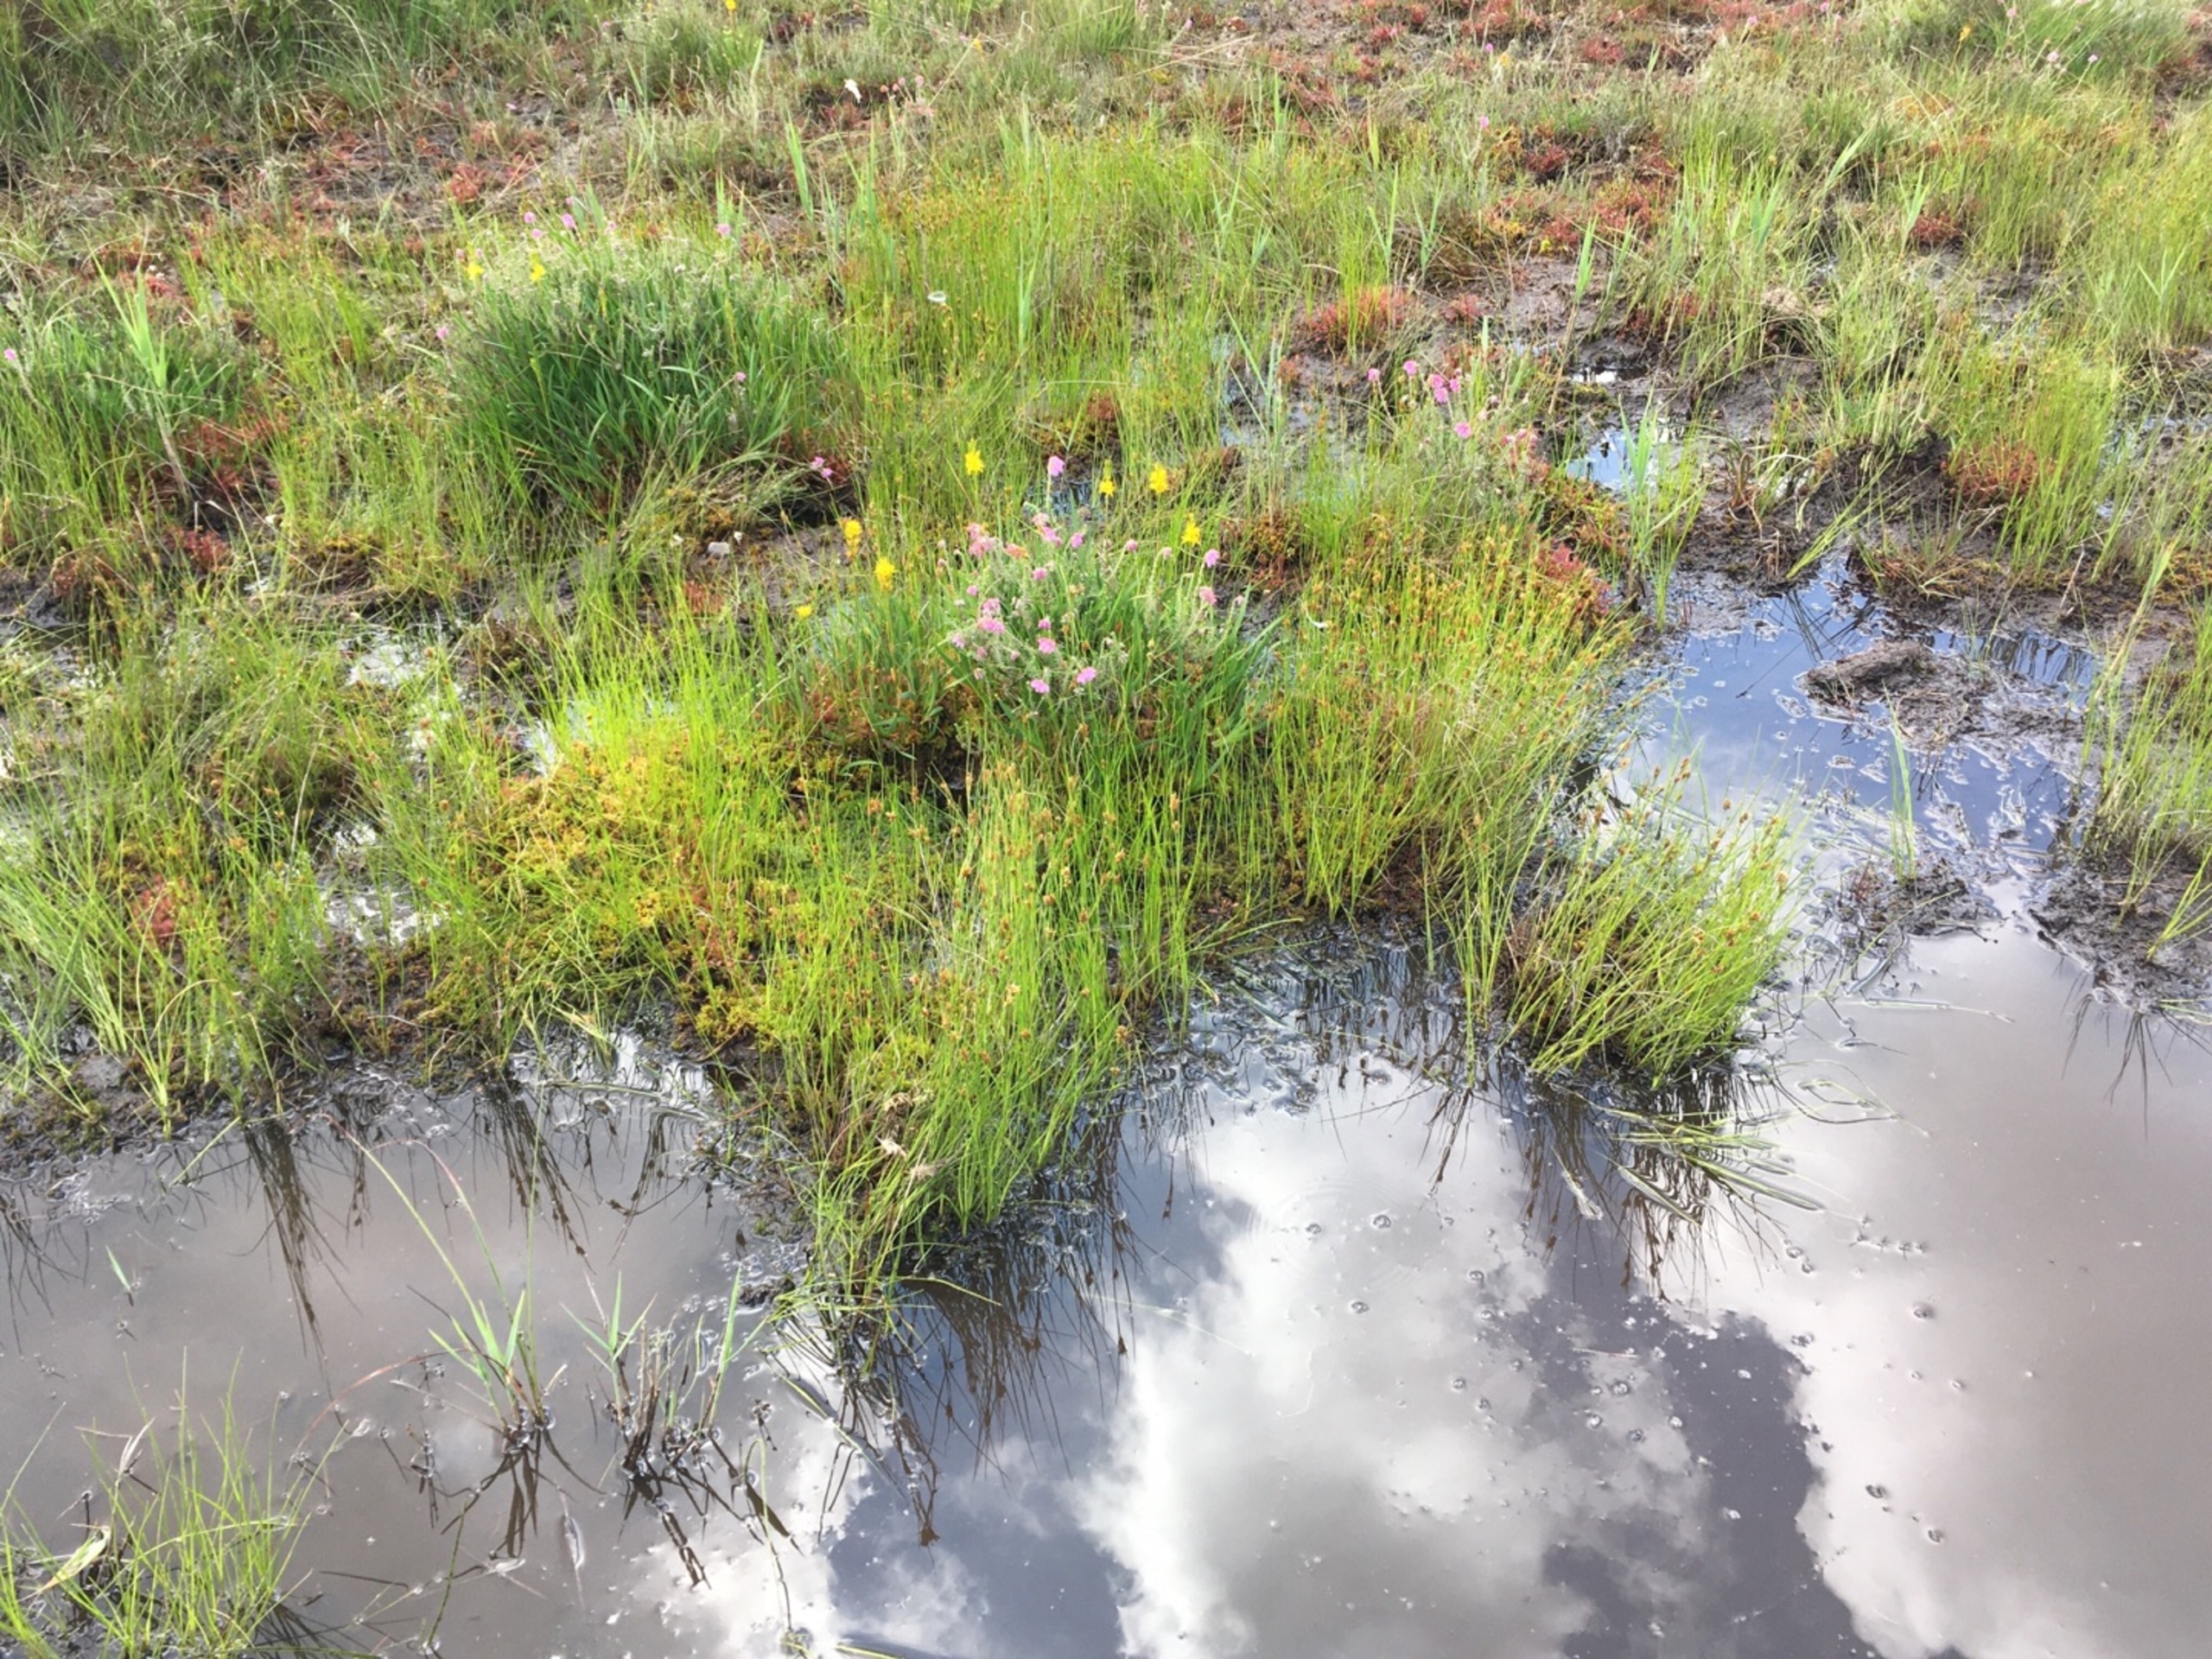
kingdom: Plantae
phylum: Tracheophyta
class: Liliopsida
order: Poales
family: Cyperaceae
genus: Rhynchospora
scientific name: Rhynchospora fusca
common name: Brun næbfrø
